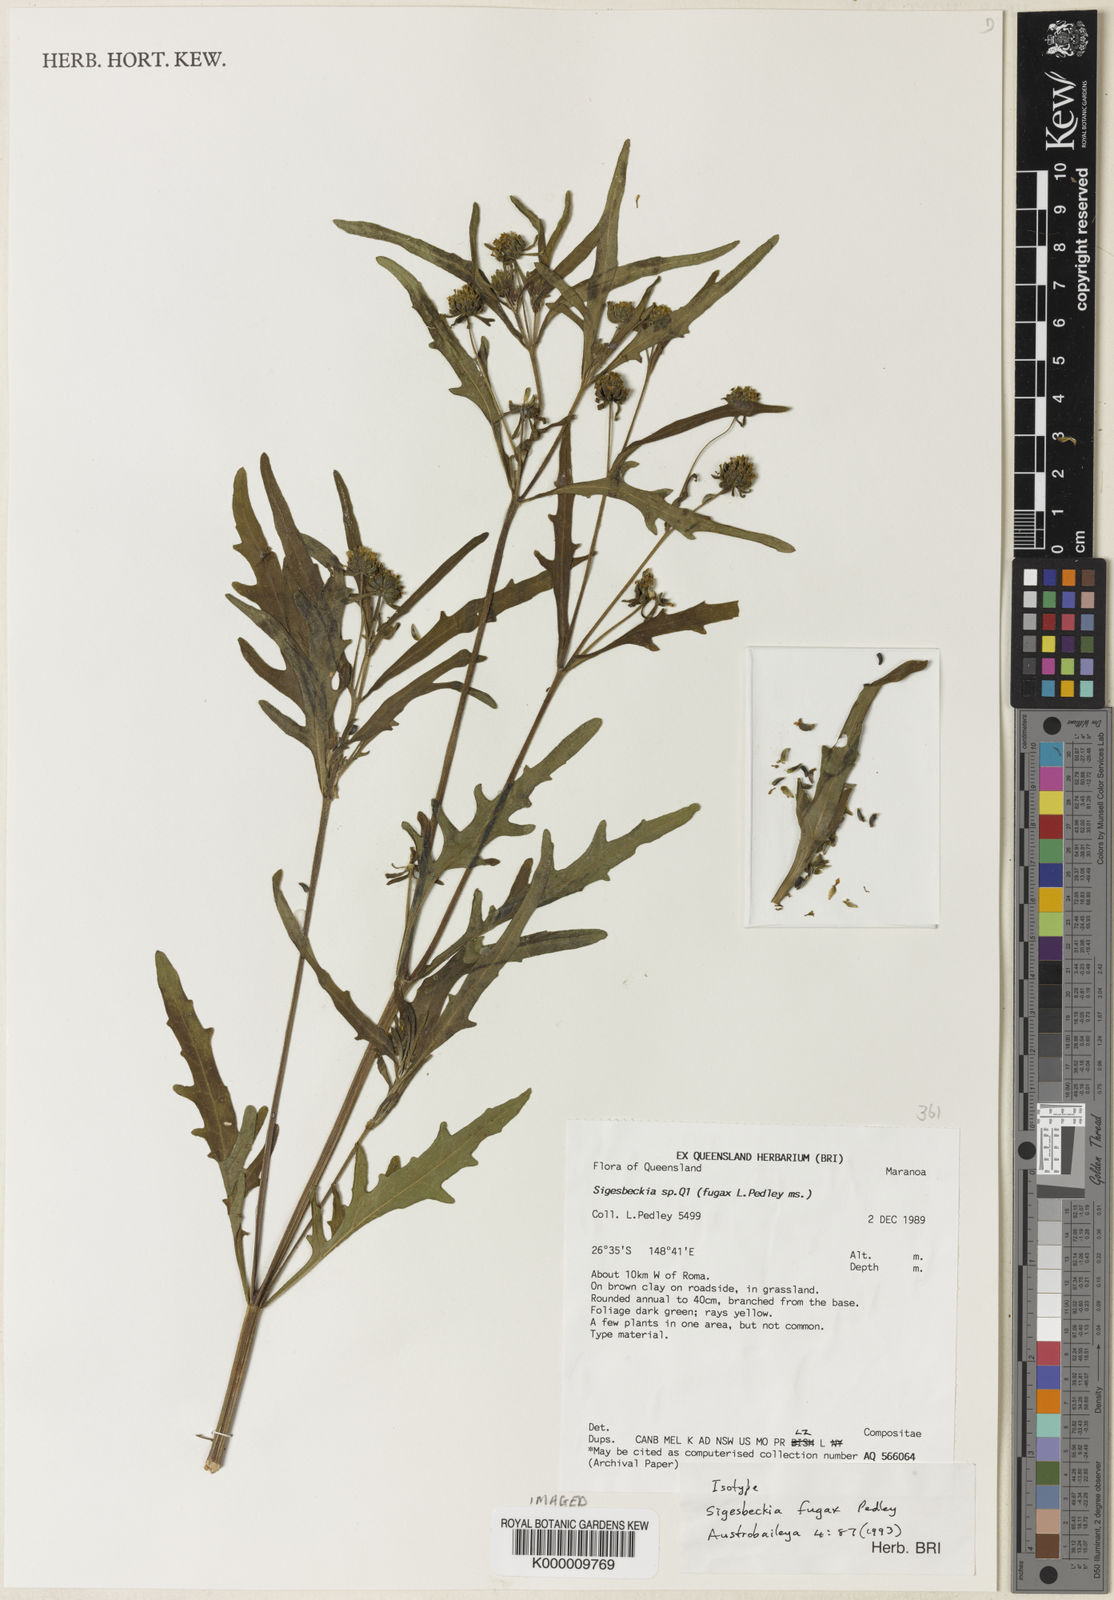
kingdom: Plantae
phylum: Tracheophyta
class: Magnoliopsida
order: Asterales
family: Asteraceae
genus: Sigesbeckia
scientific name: Sigesbeckia australiensis
